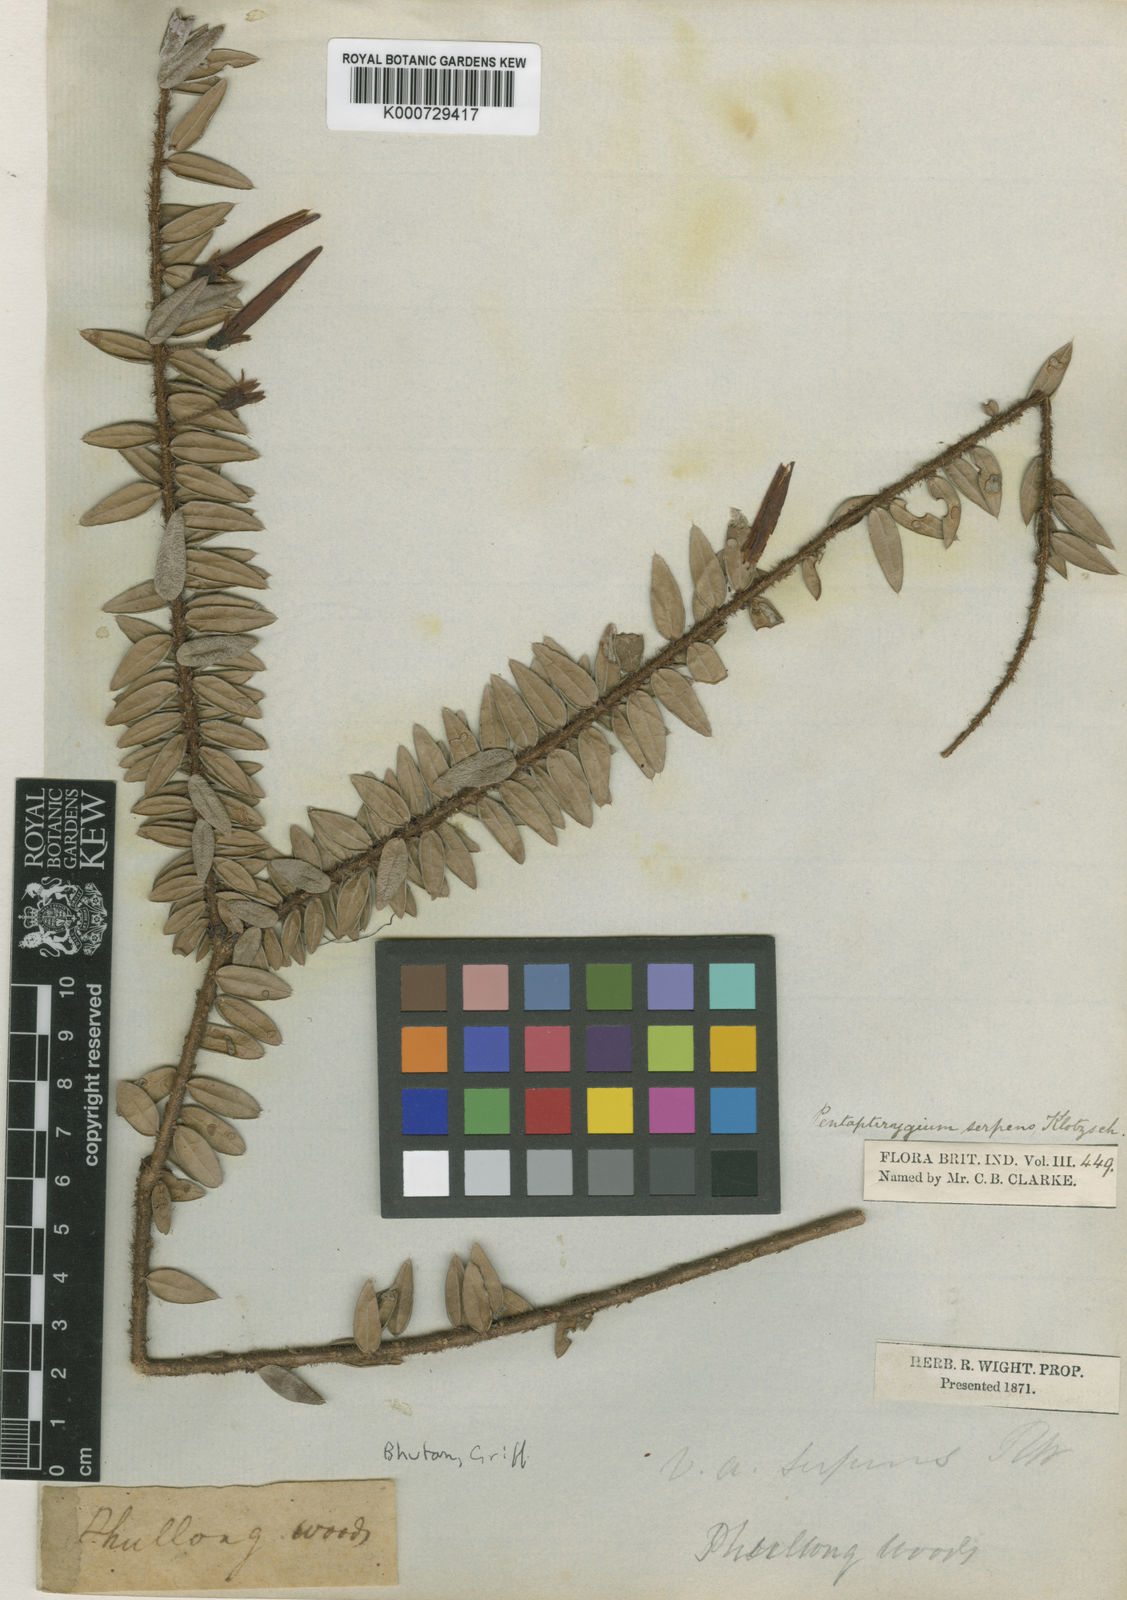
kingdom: Plantae
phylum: Tracheophyta
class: Magnoliopsida
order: Ericales
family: Ericaceae
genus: Agapetes
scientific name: Agapetes serpens
